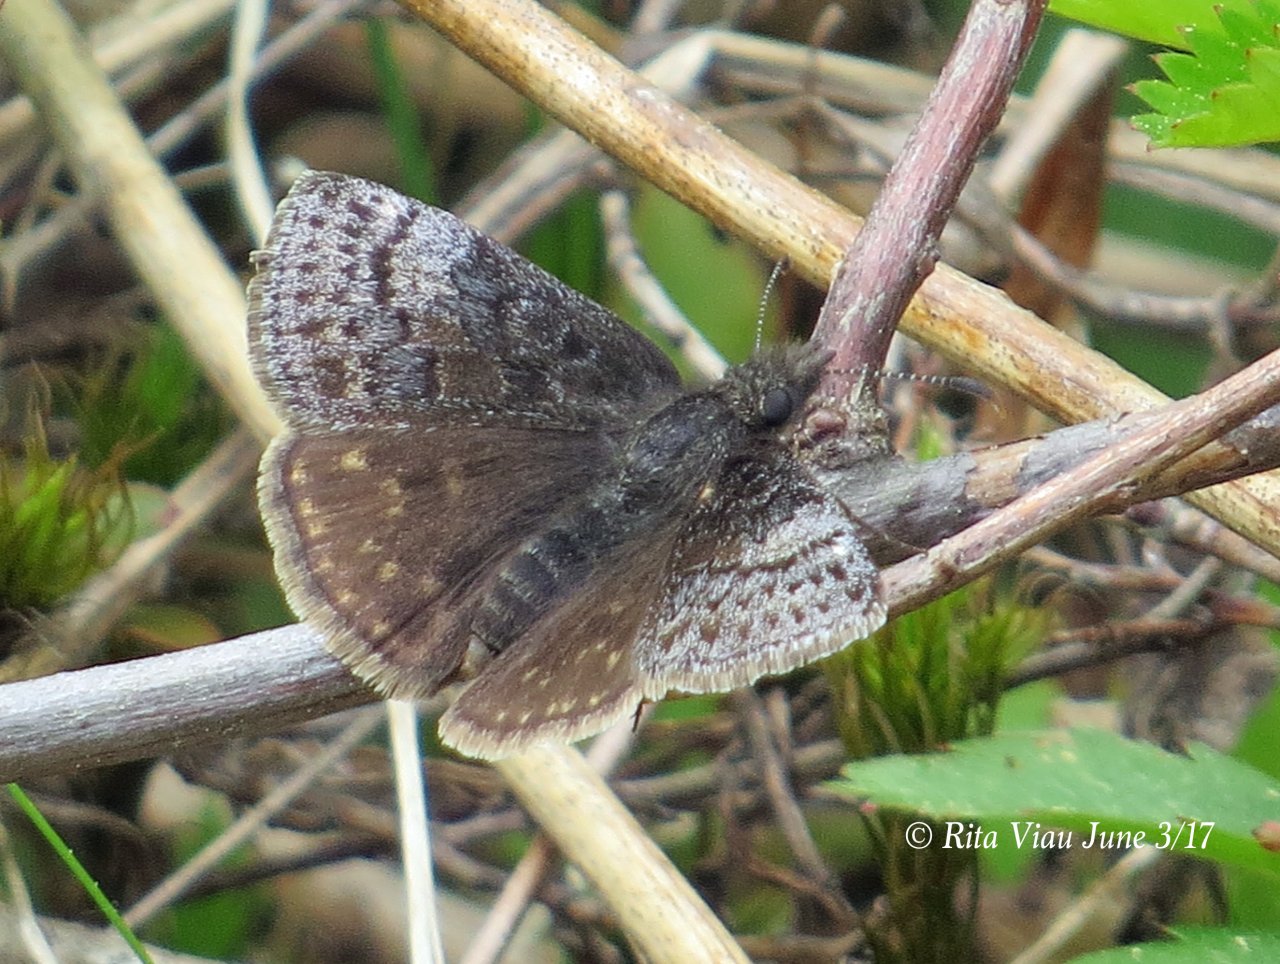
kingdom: Animalia
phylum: Arthropoda
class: Insecta
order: Lepidoptera
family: Hesperiidae
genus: Erynnis
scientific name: Erynnis icelus
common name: Dreamy Duskywing
